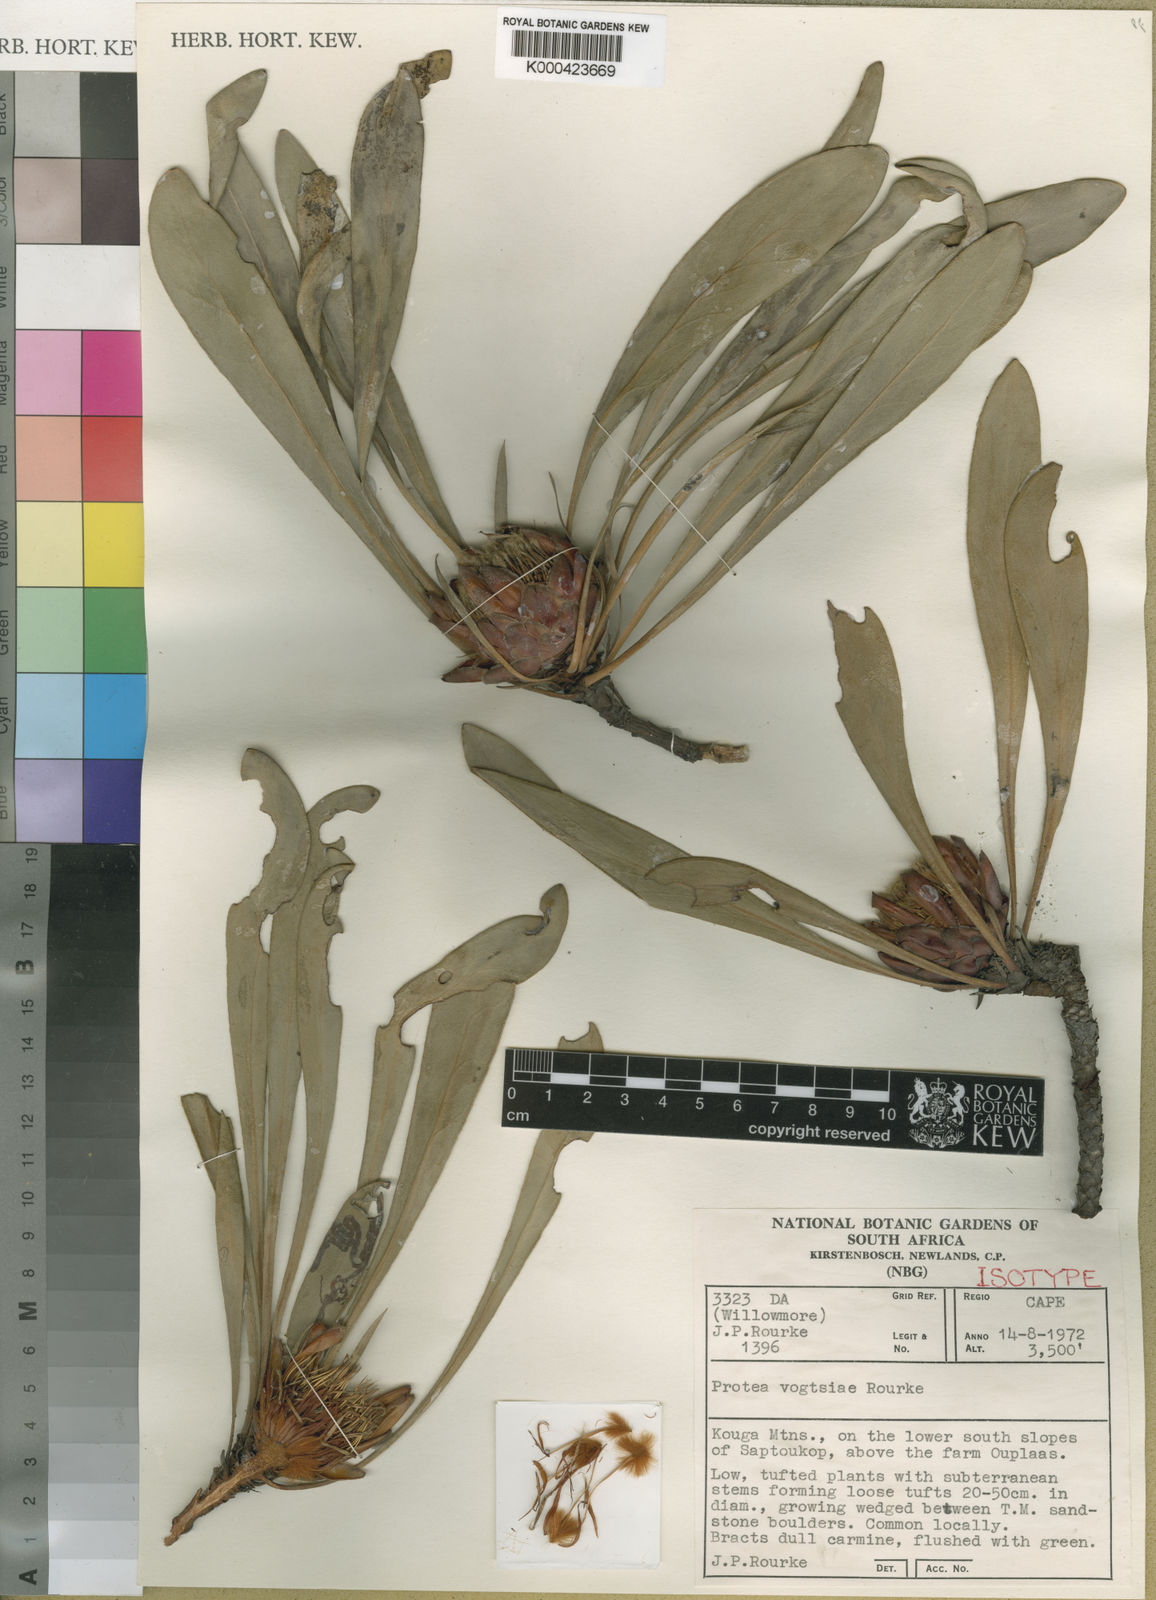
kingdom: Plantae
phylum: Tracheophyta
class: Magnoliopsida
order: Proteales
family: Proteaceae
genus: Protea
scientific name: Protea vogtsiae
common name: Kouga sugarbush
